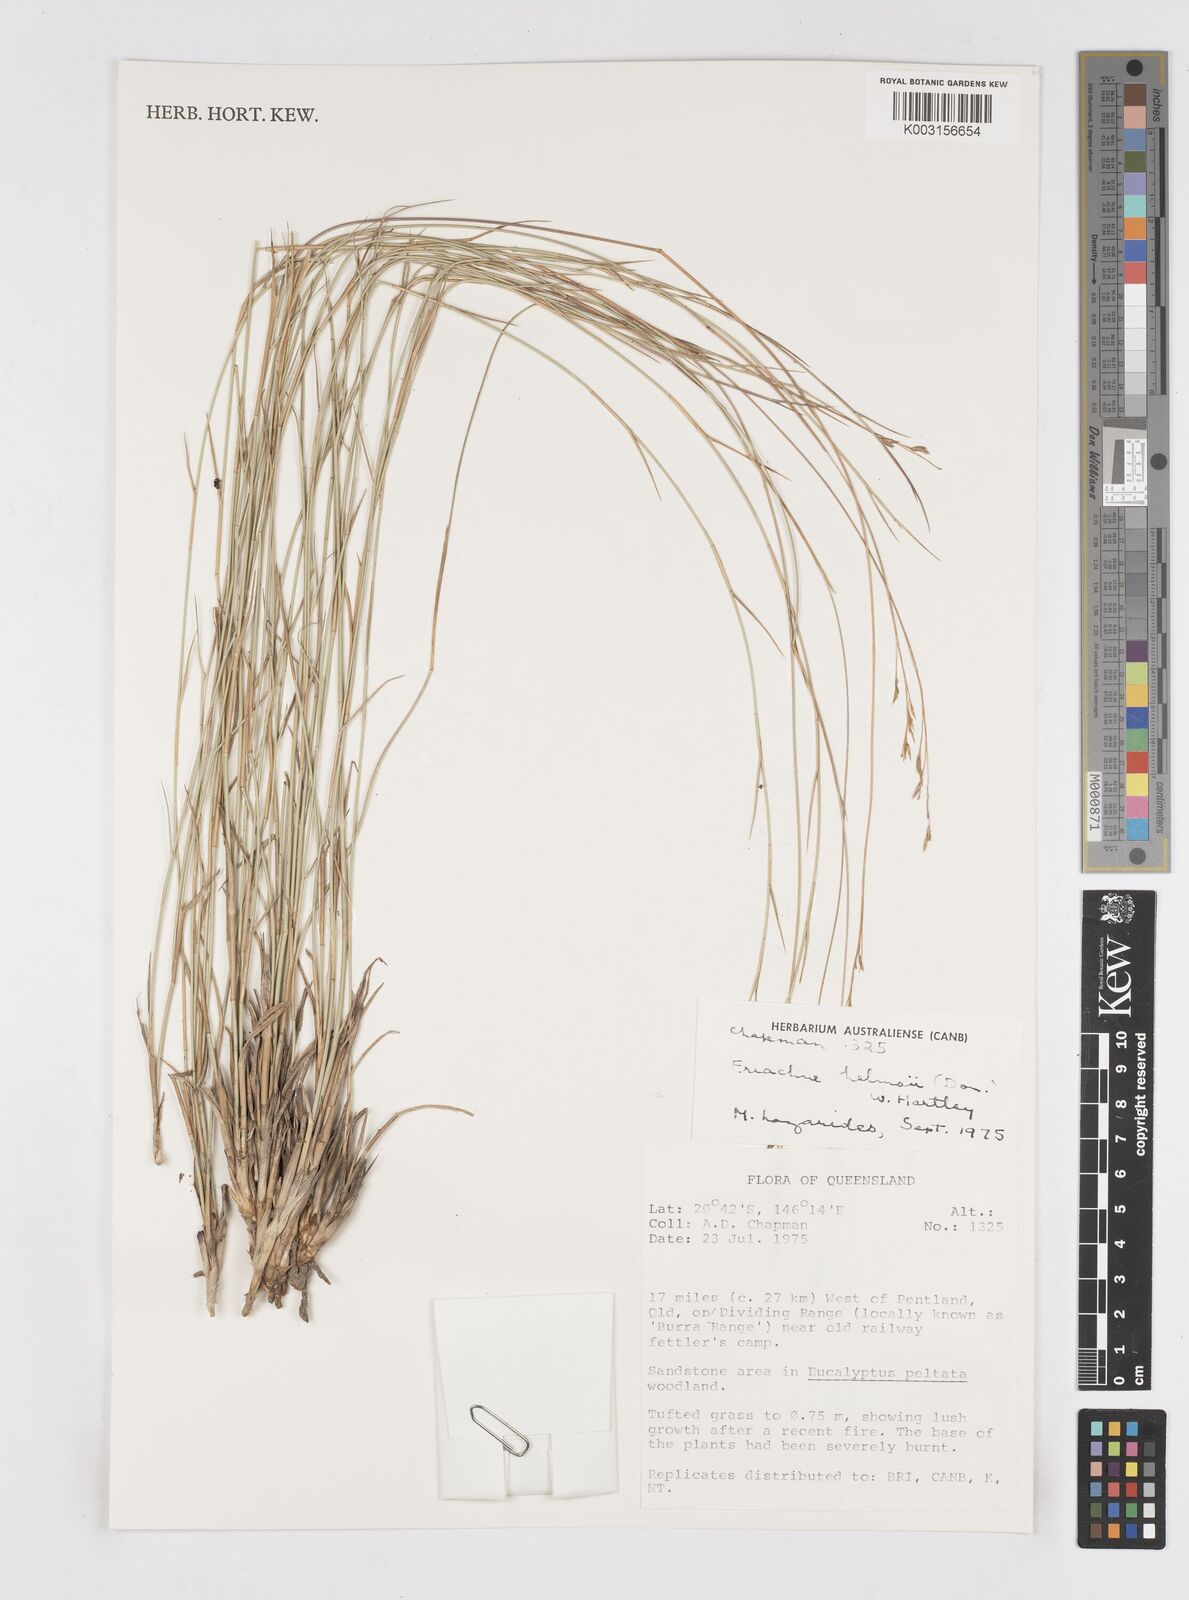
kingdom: Plantae
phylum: Tracheophyta
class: Liliopsida
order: Poales
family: Poaceae
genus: Eriachne
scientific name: Eriachne helmsii
